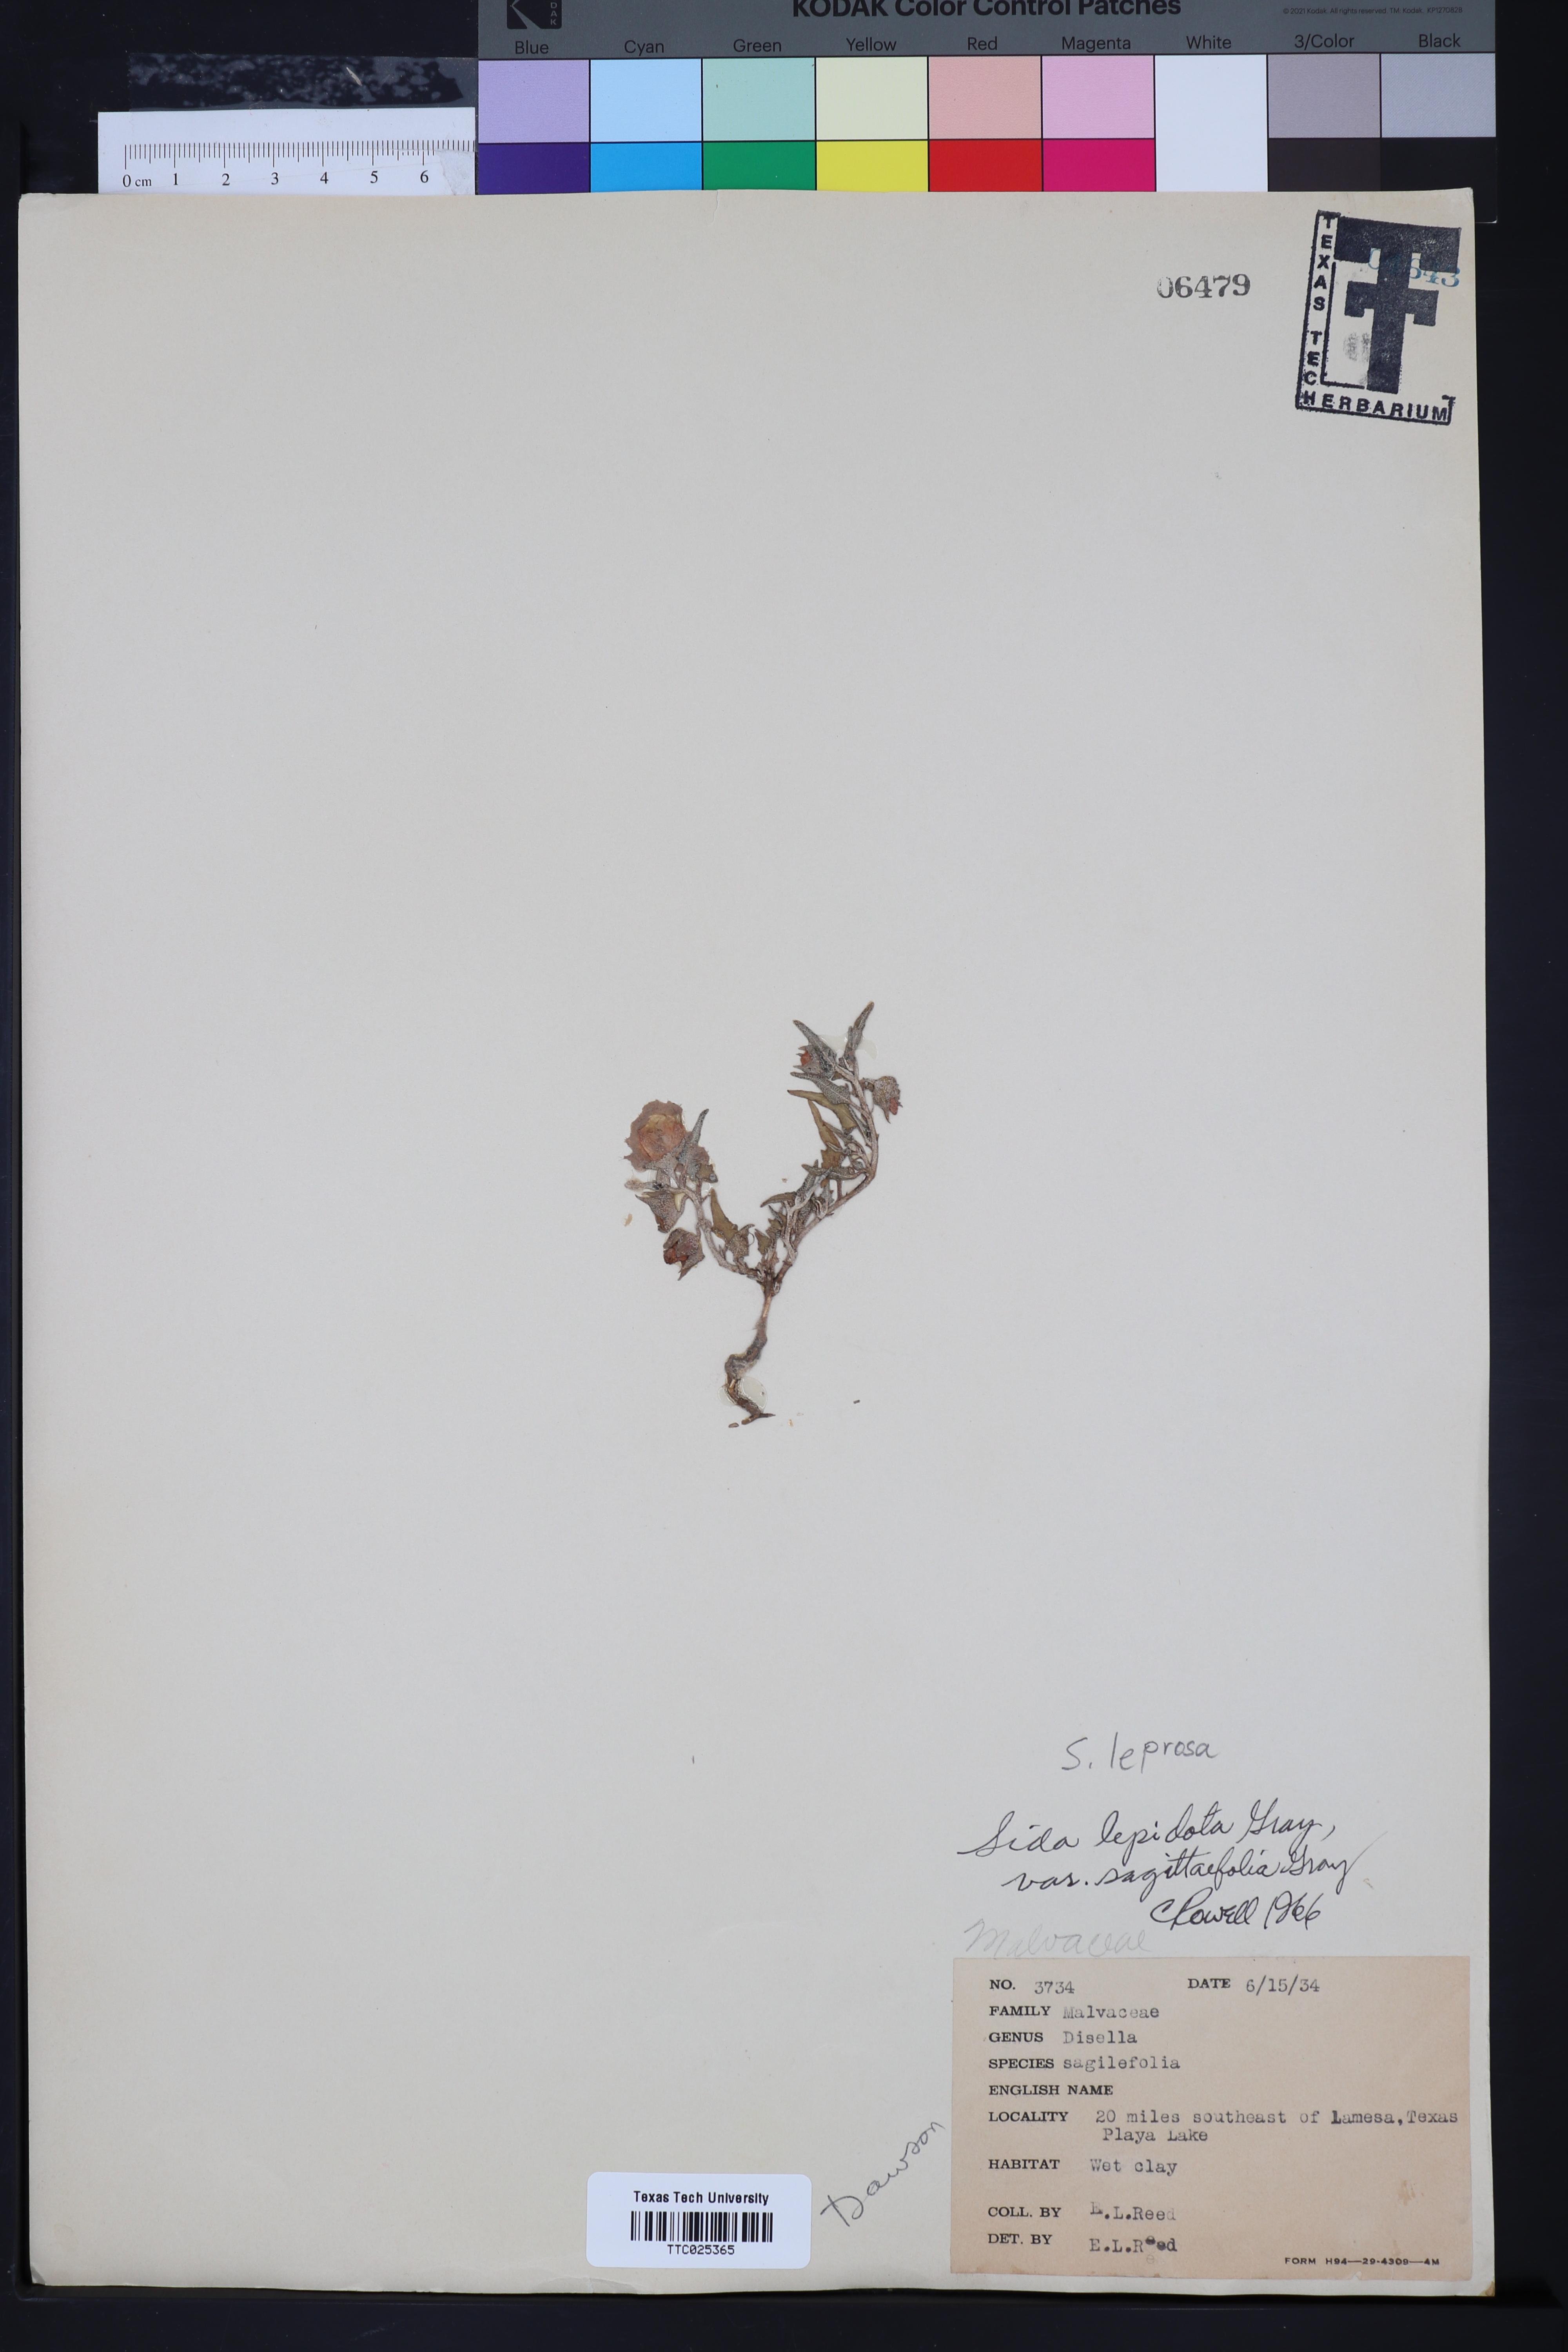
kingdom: Plantae
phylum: Tracheophyta
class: Magnoliopsida
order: Malvales
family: Malvaceae
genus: Malvella
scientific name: Malvella sagittifolia
